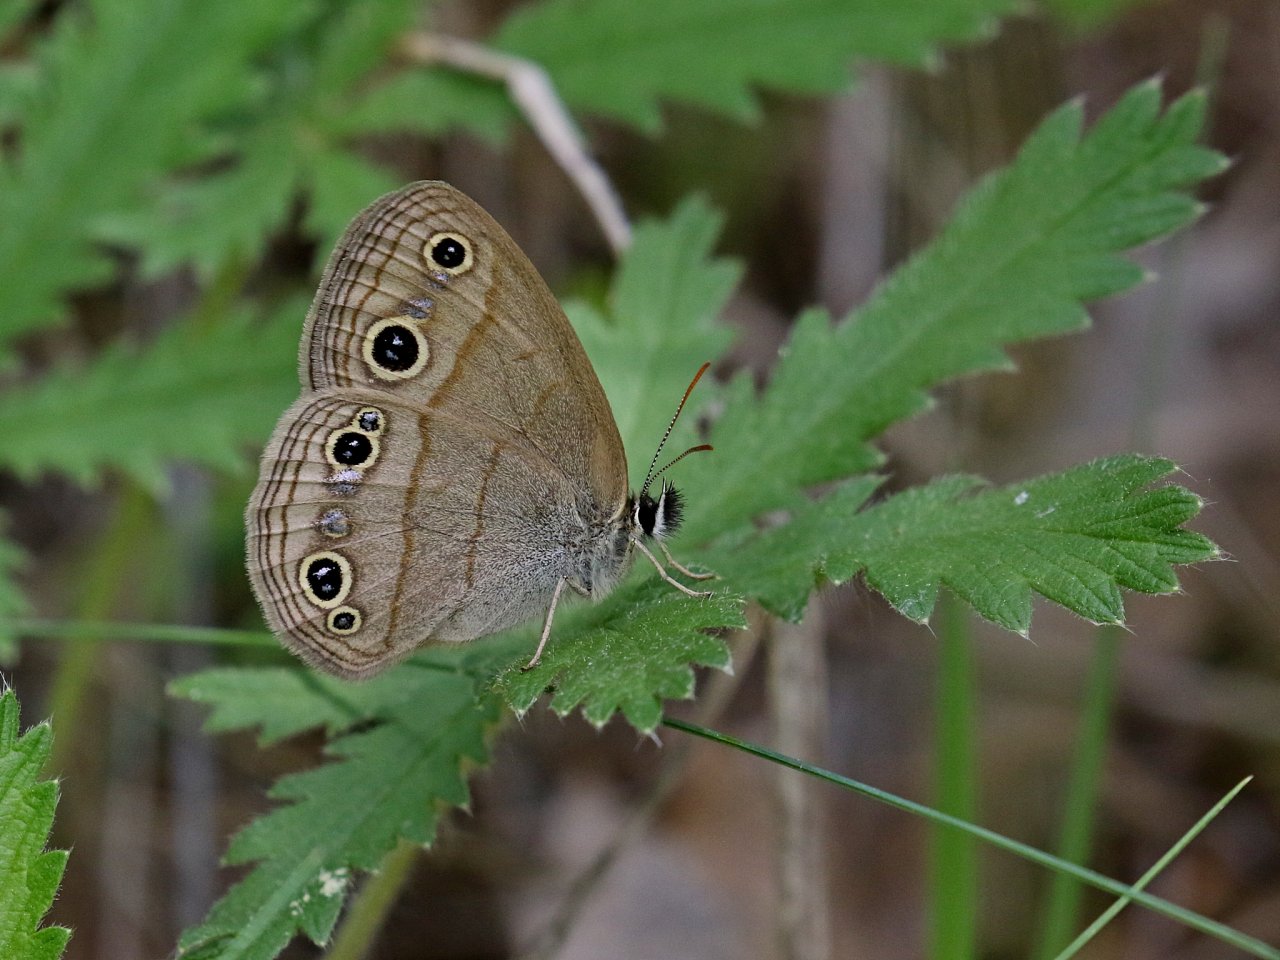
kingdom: Animalia
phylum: Arthropoda
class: Insecta
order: Lepidoptera
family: Nymphalidae
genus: Euptychia
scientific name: Euptychia cymela
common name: Little Wood Satyr
